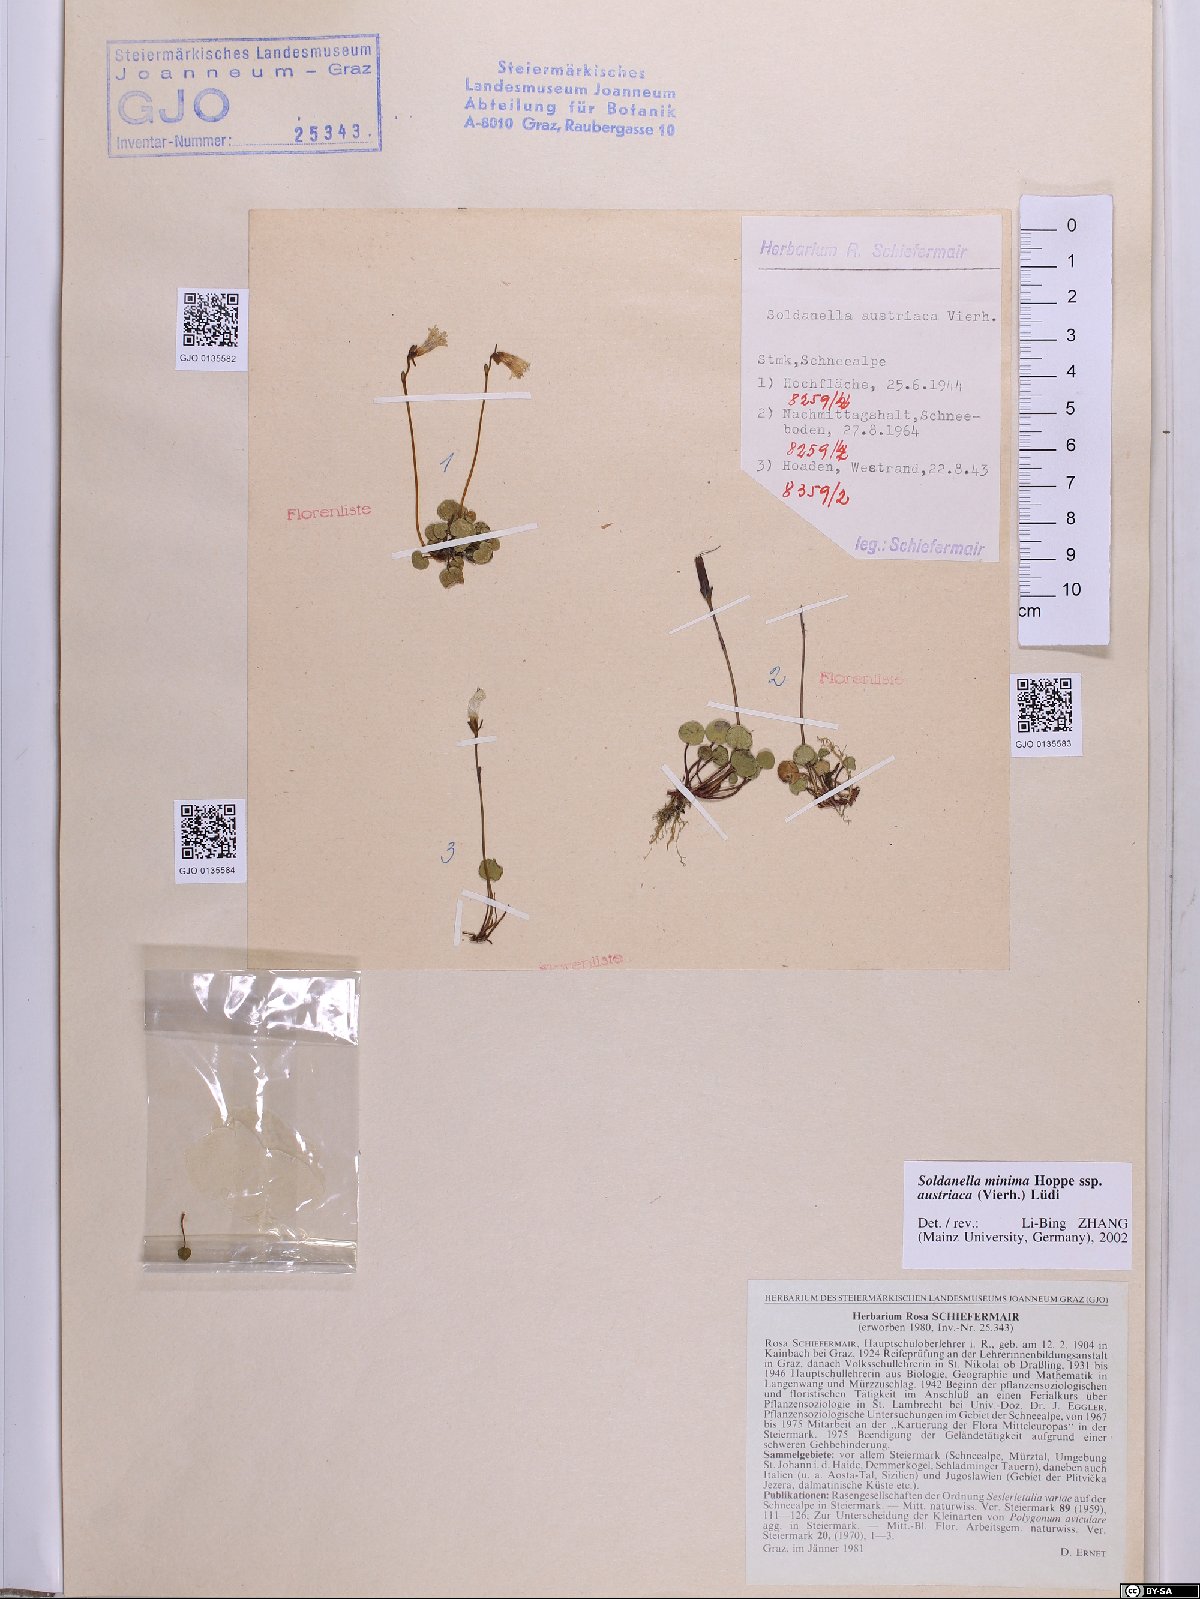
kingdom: Plantae
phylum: Tracheophyta
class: Magnoliopsida
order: Ericales
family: Primulaceae
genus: Soldanella
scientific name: Soldanella austriaca
